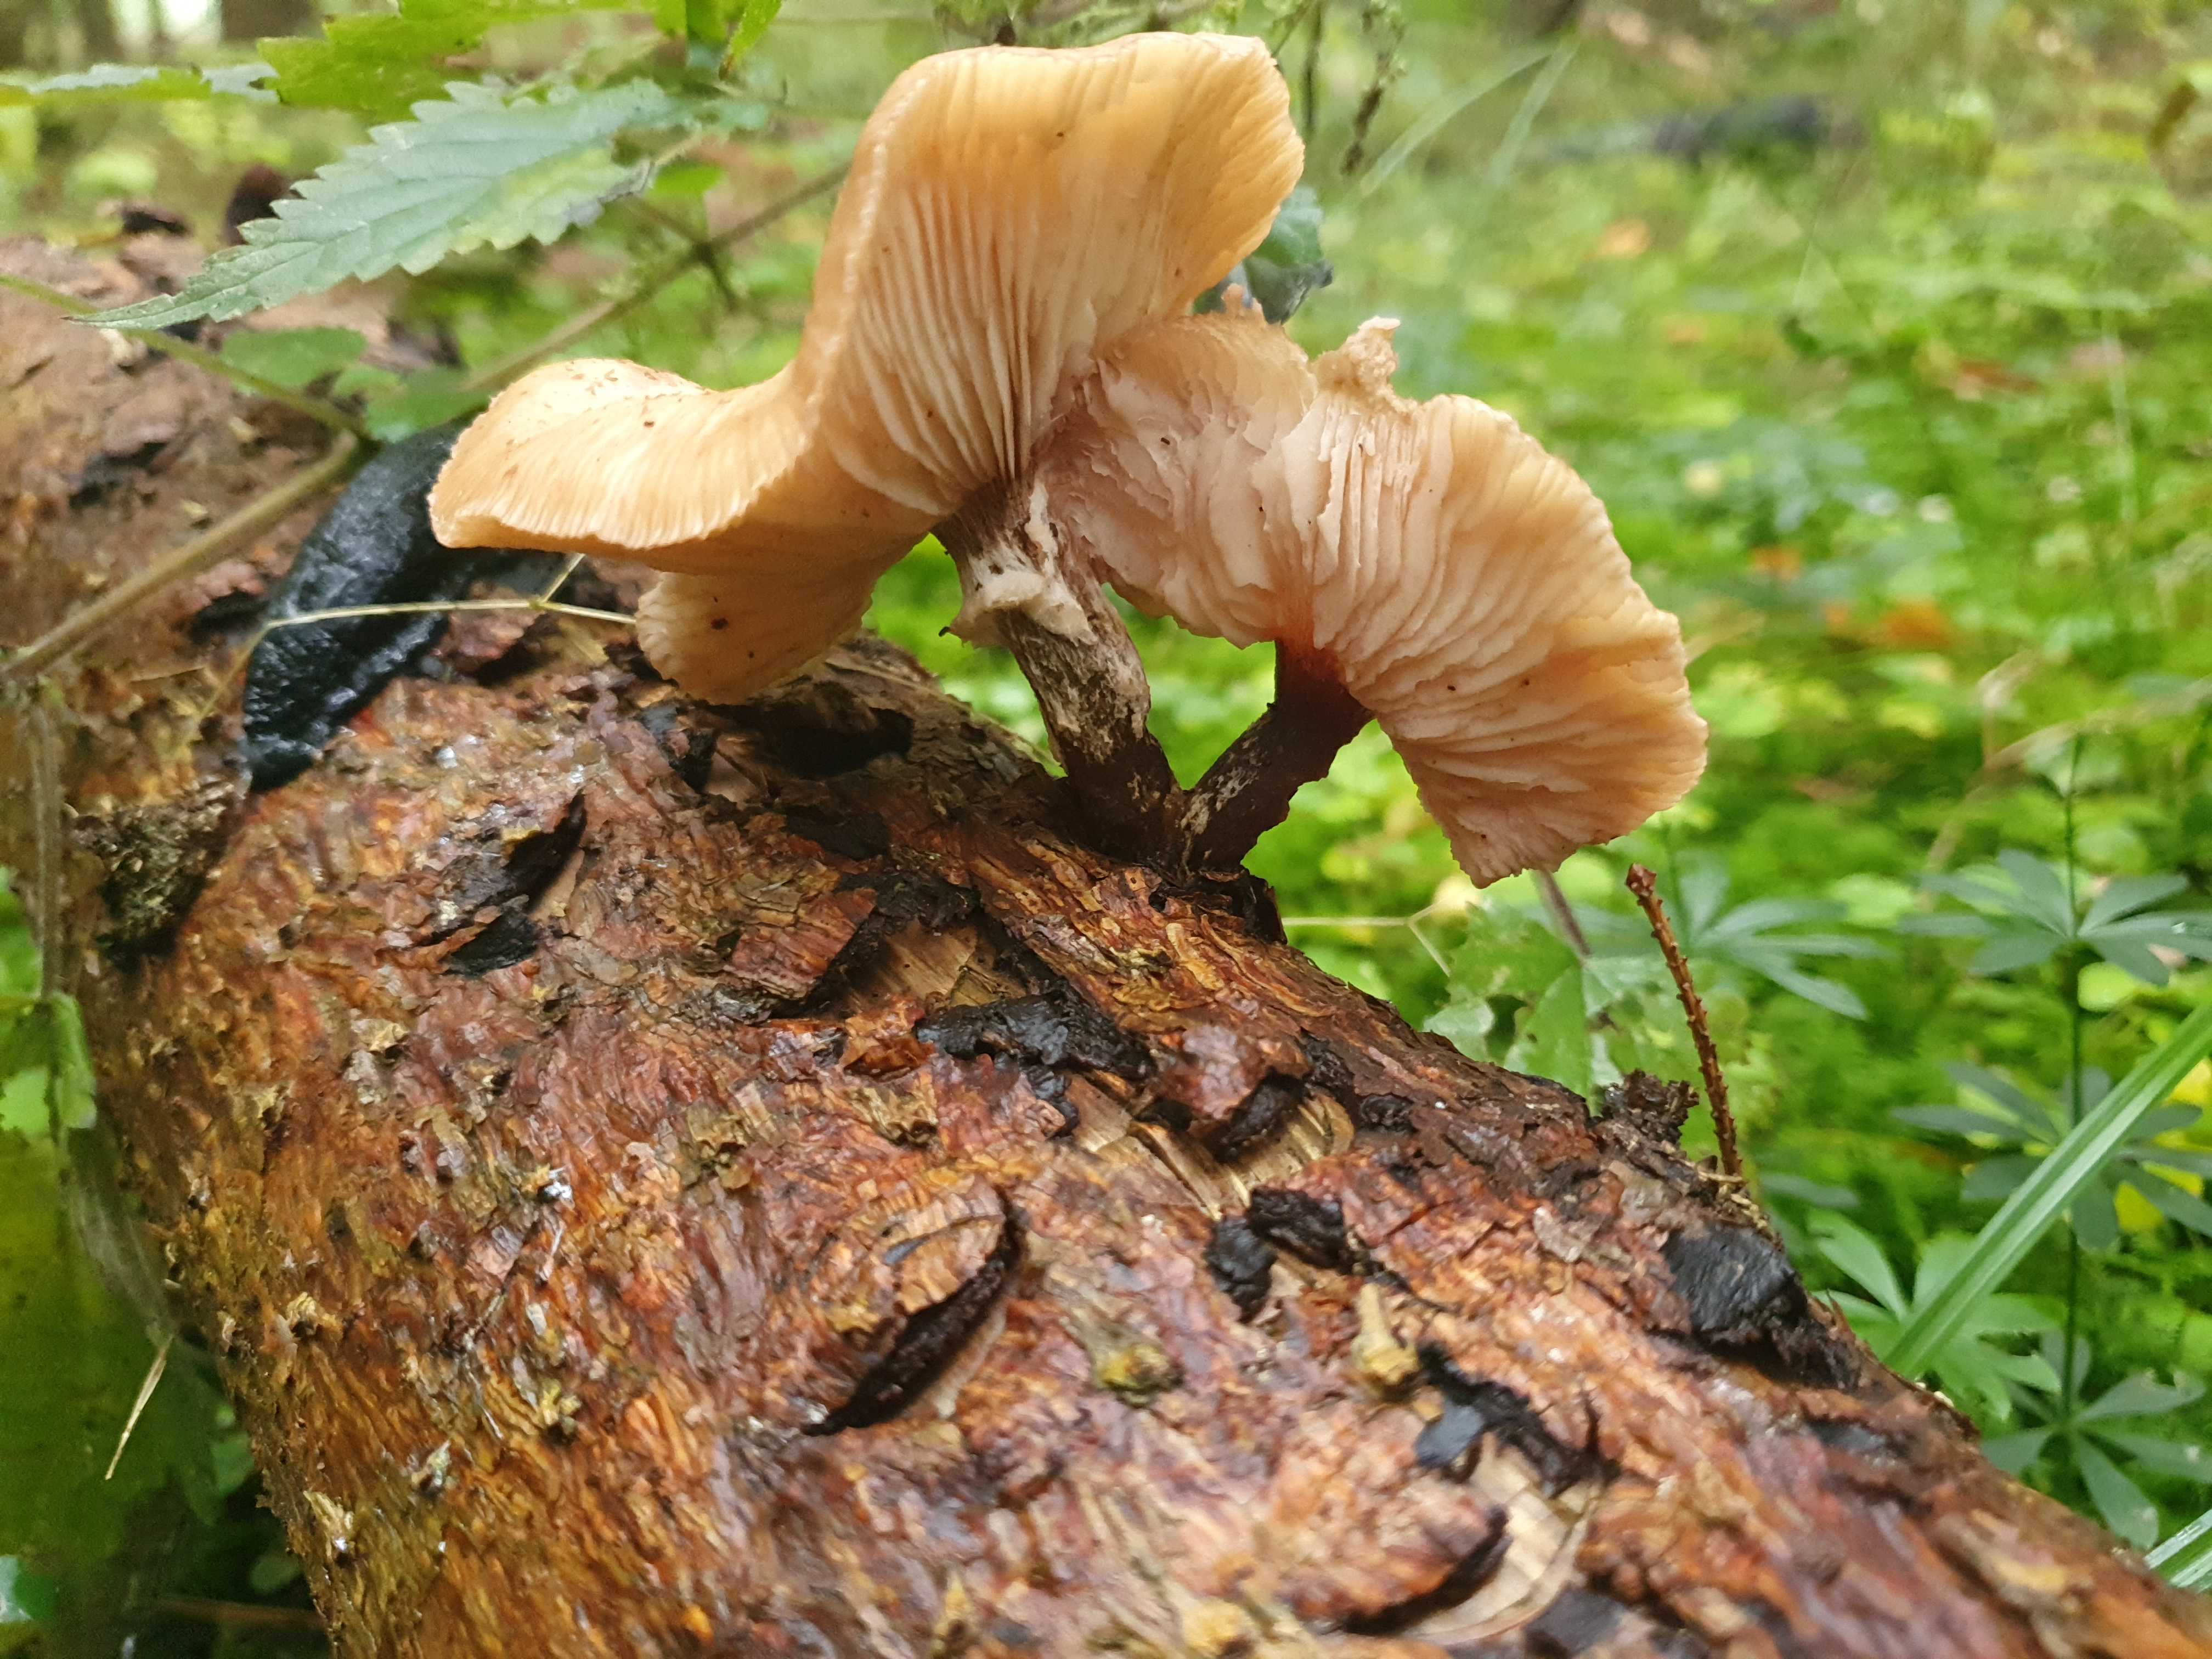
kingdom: Fungi
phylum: Basidiomycota
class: Agaricomycetes
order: Agaricales
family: Physalacriaceae
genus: Armillaria
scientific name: Armillaria
